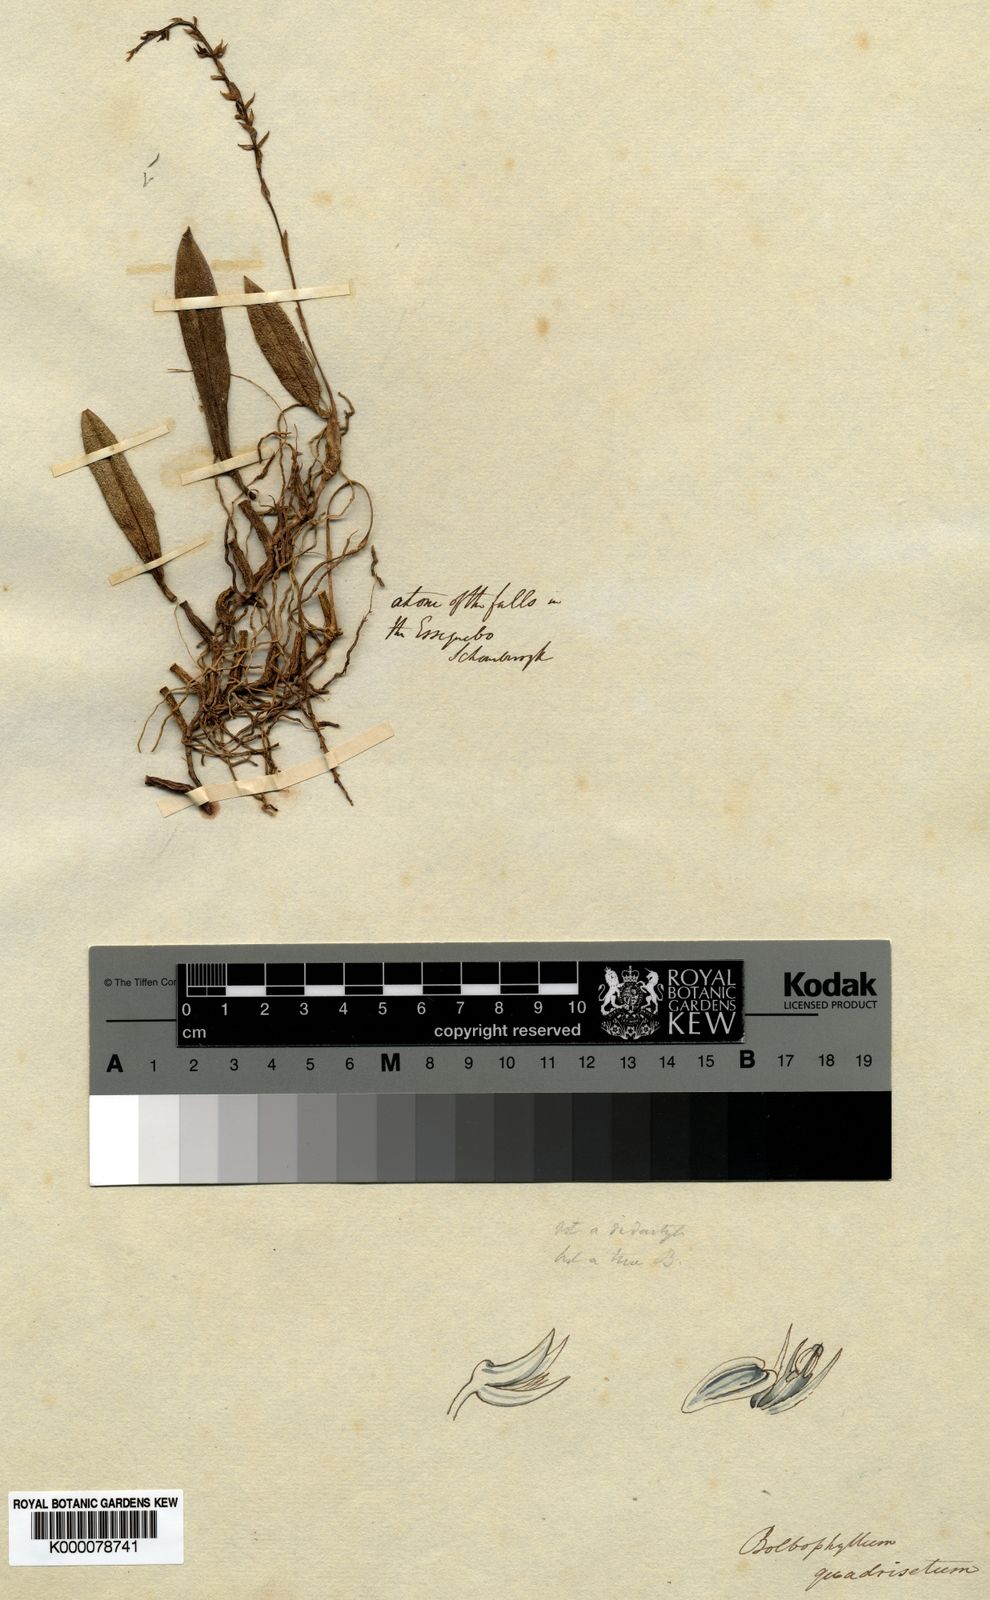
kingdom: Plantae
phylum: Tracheophyta
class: Liliopsida
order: Asparagales
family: Orchidaceae
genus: Bulbophyllum
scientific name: Bulbophyllum quadrisetum
